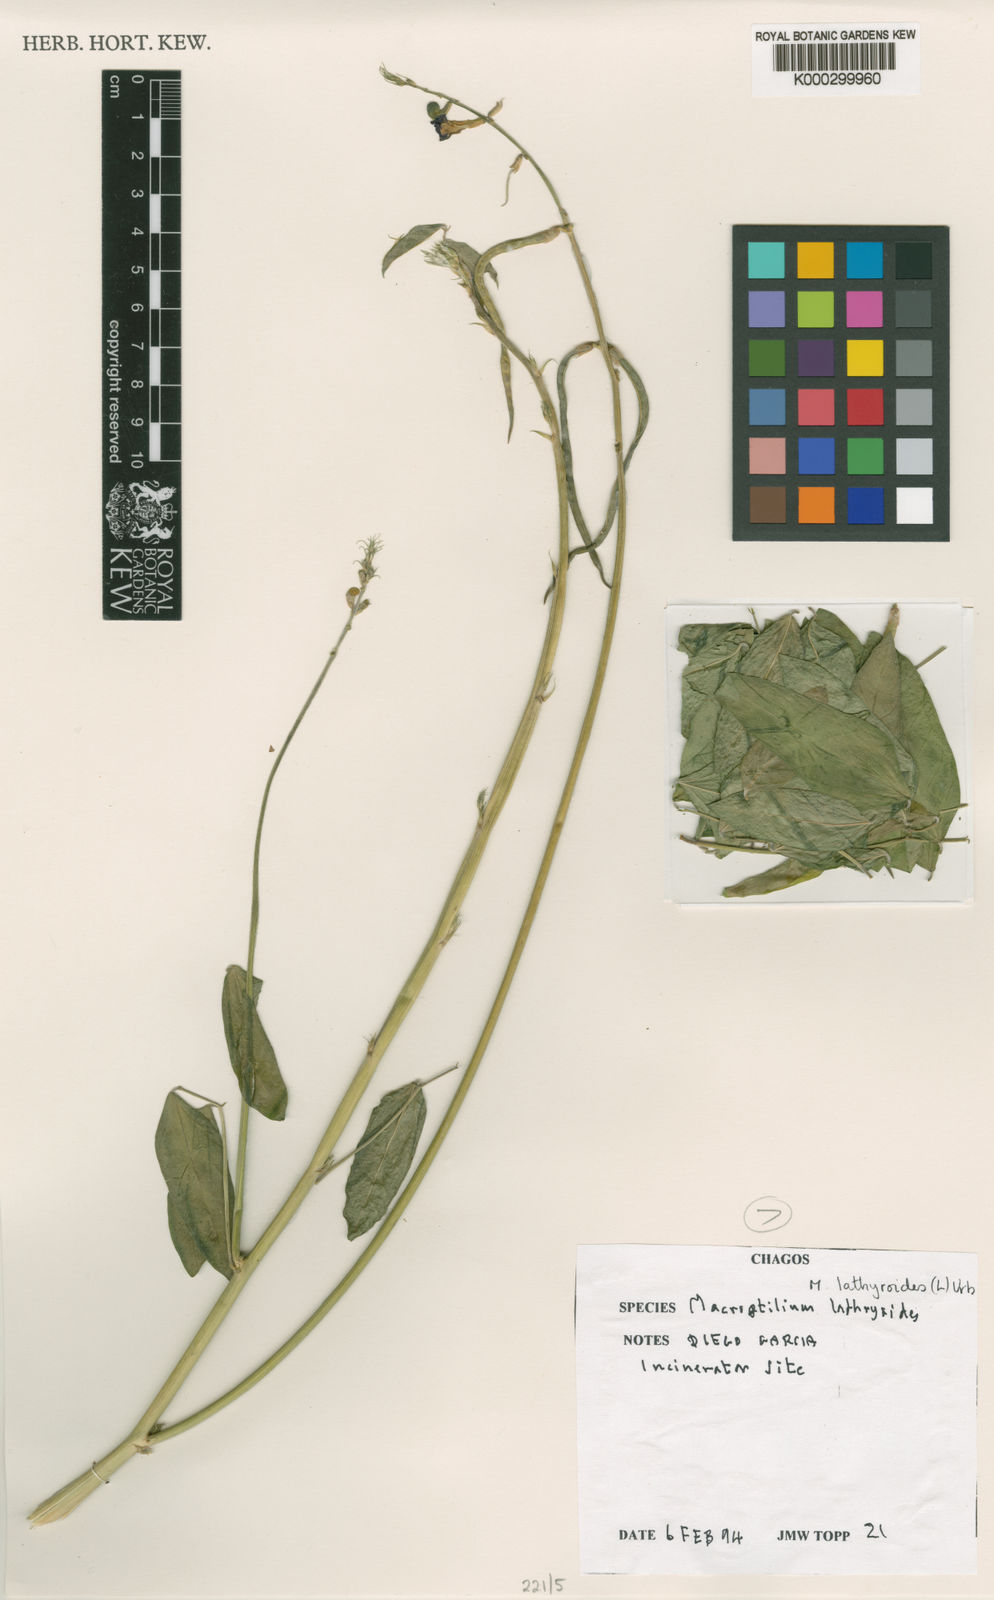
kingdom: Plantae
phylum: Tracheophyta
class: Magnoliopsida
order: Fabales
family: Fabaceae
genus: Macroptilium
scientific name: Macroptilium lathyroides
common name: Wild bushbean
